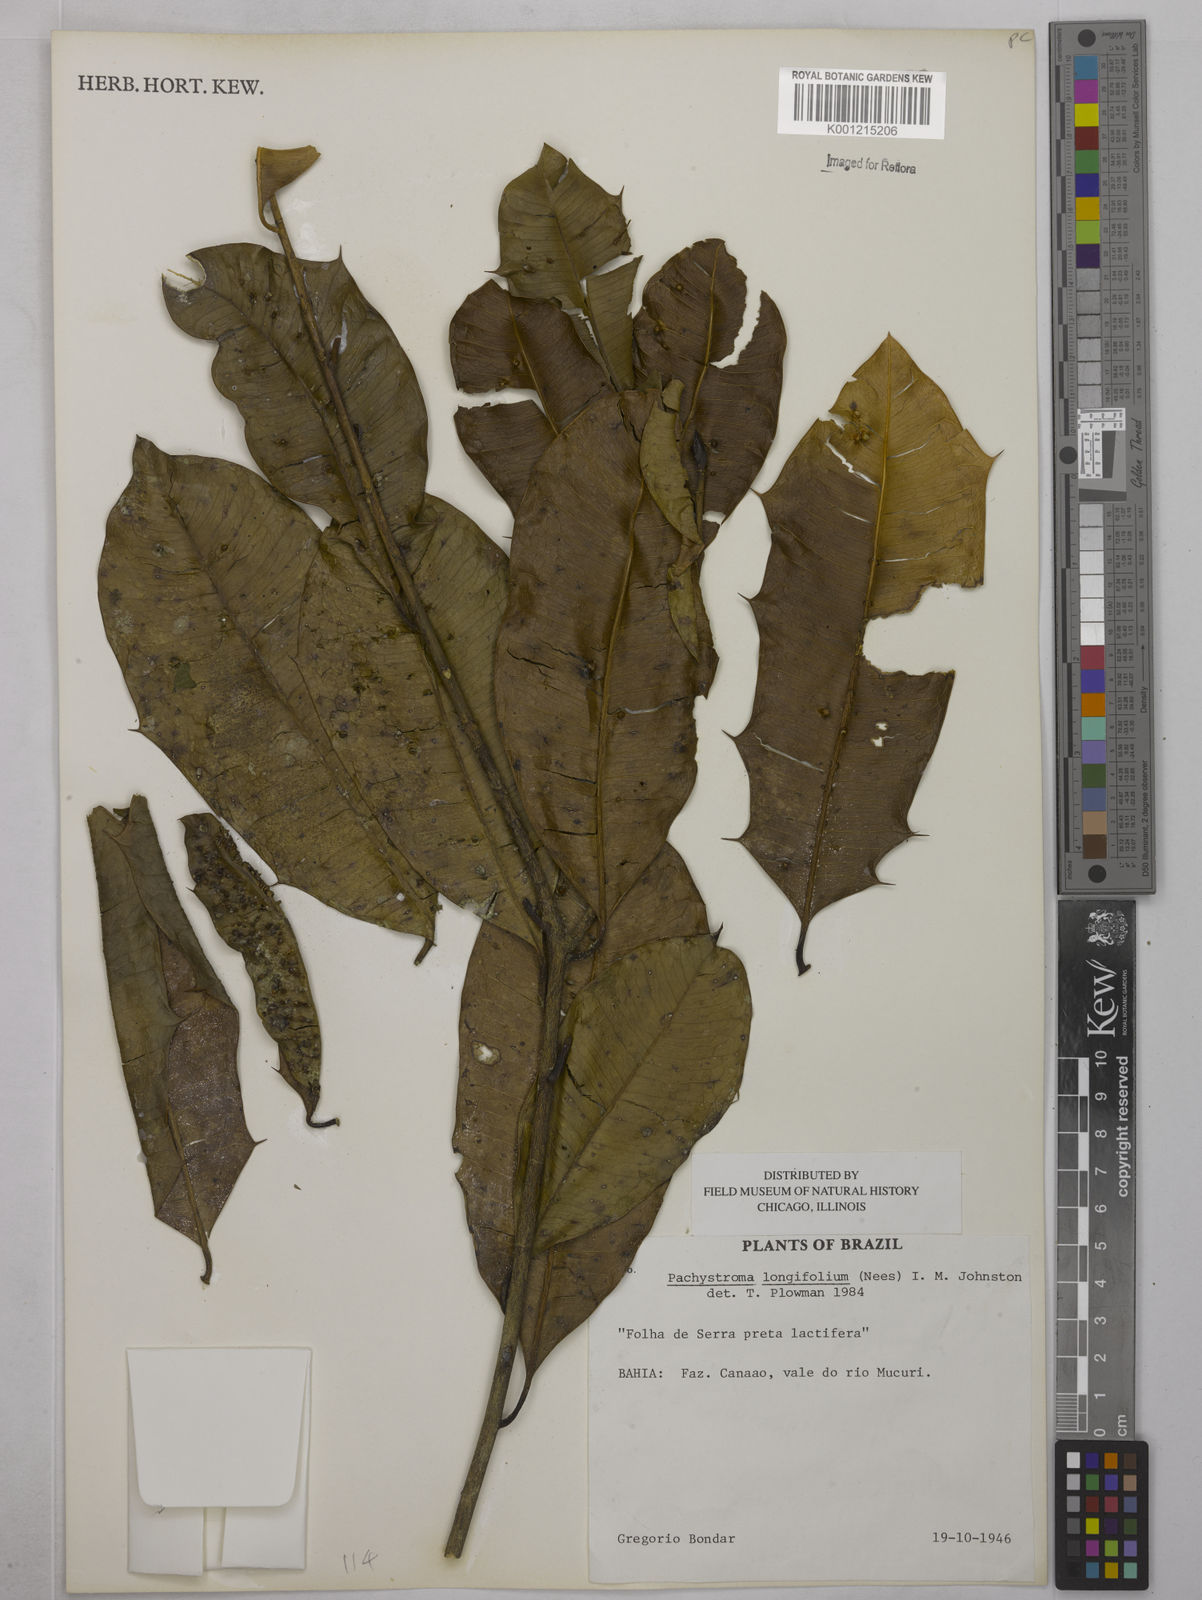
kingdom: Plantae
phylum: Tracheophyta
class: Magnoliopsida
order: Malpighiales
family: Euphorbiaceae
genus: Pachystroma
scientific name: Pachystroma longifolium
